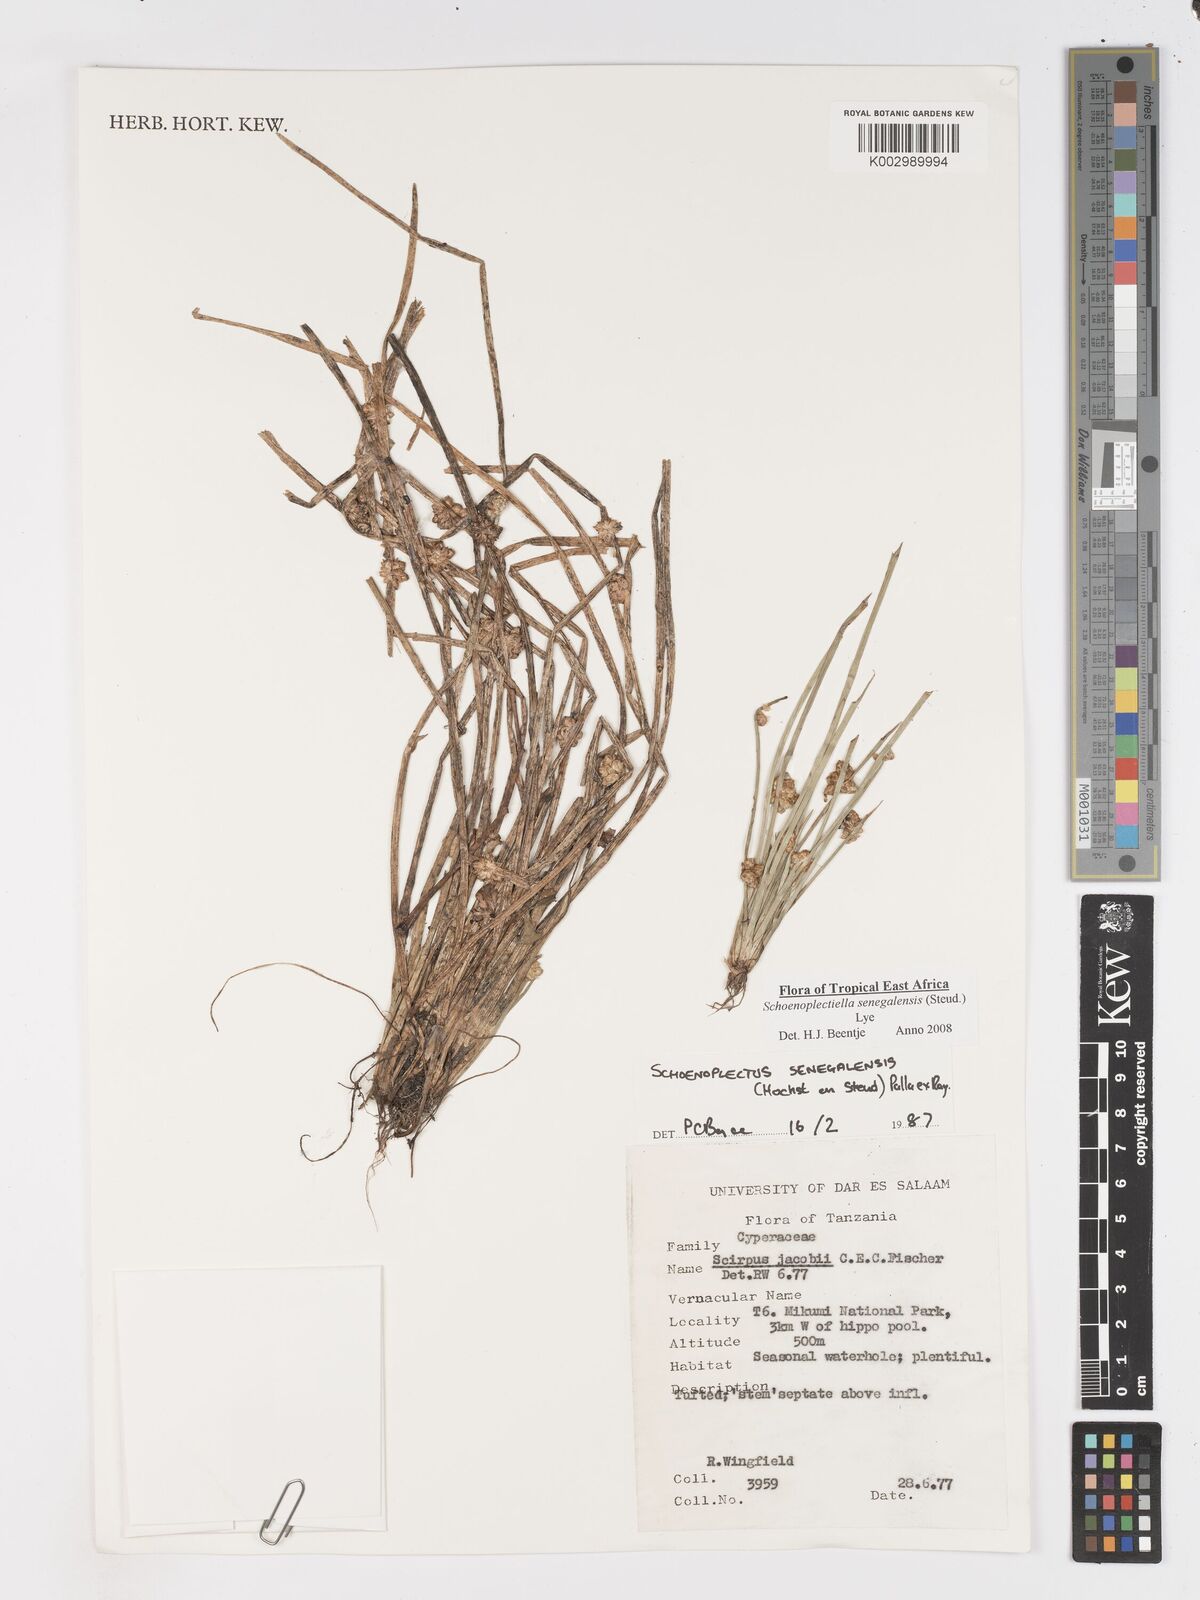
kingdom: Plantae
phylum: Tracheophyta
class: Liliopsida
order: Poales
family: Cyperaceae
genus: Schoenoplectiella
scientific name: Schoenoplectiella senegalensis
